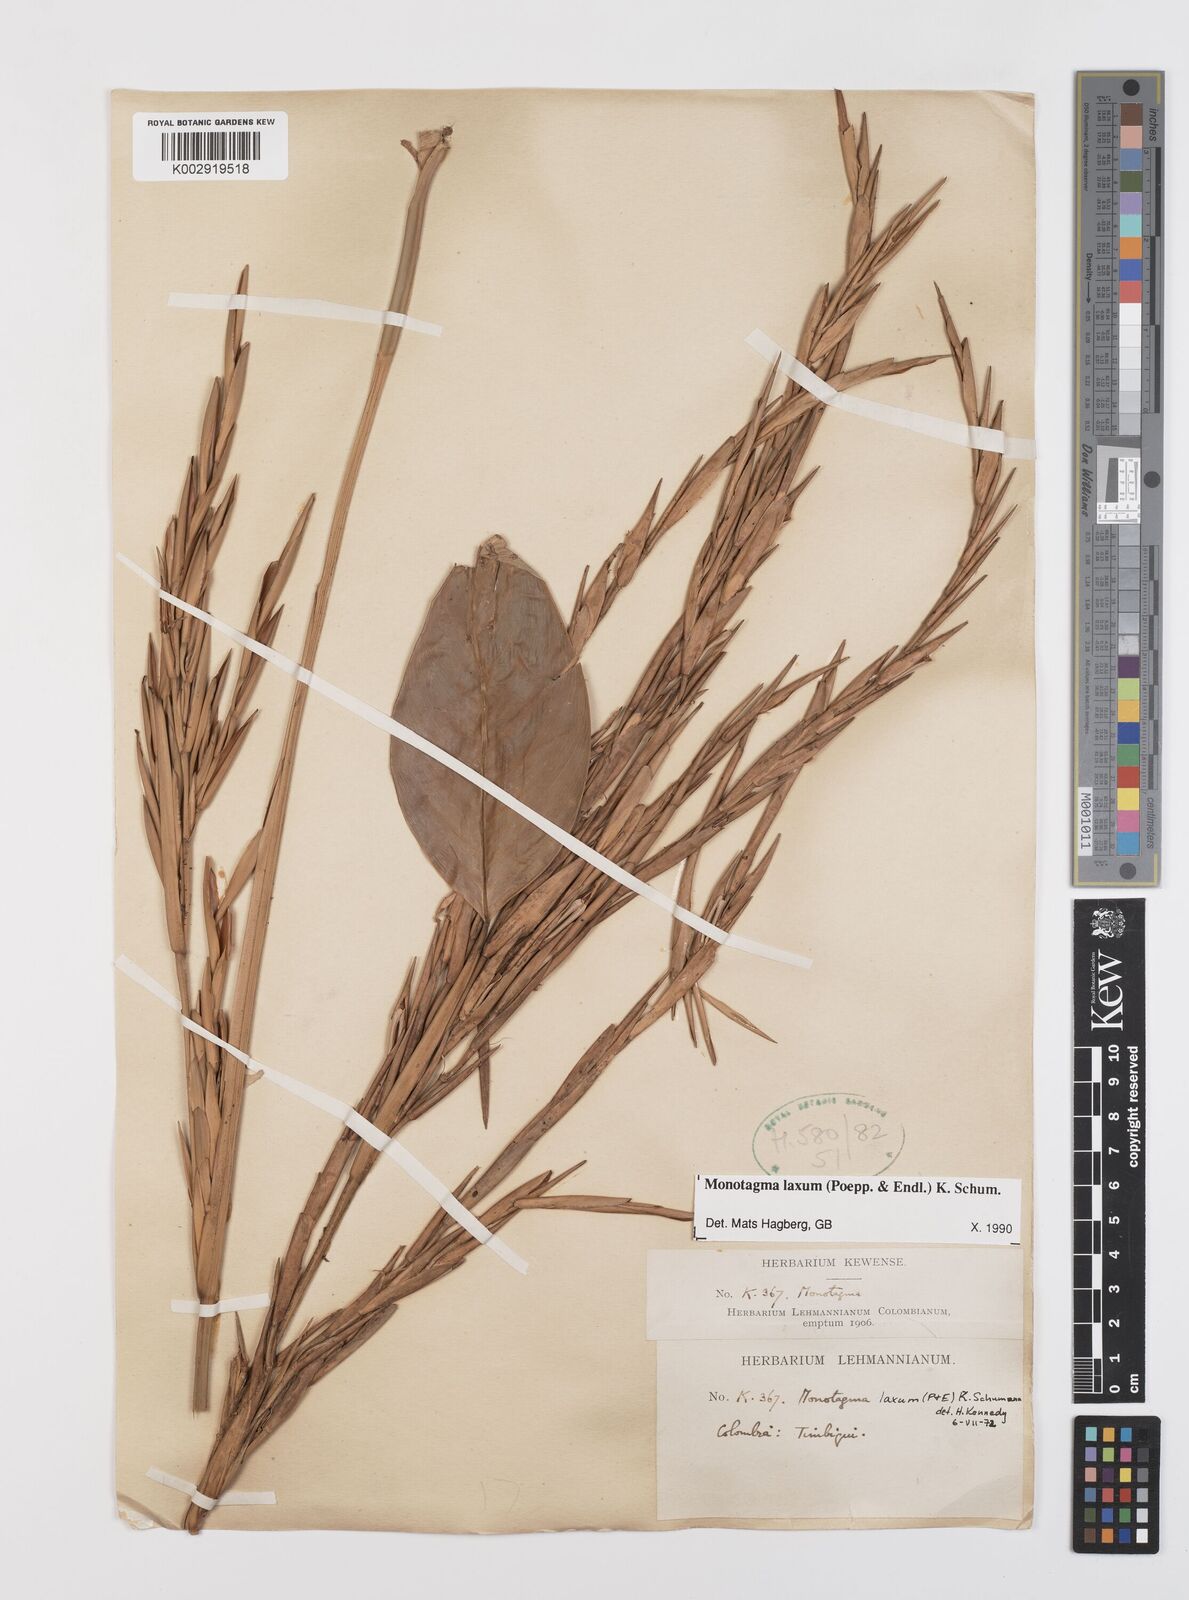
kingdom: Plantae
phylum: Tracheophyta
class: Liliopsida
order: Zingiberales
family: Marantaceae
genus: Monotagma
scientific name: Monotagma laxum
